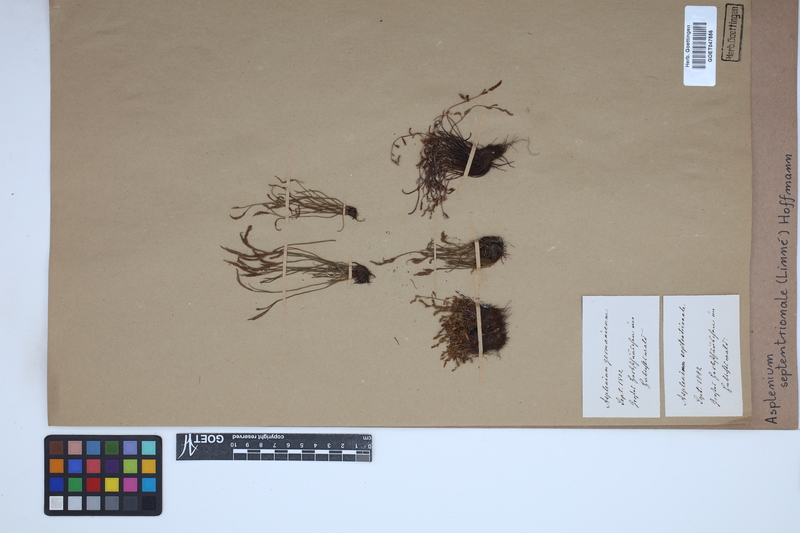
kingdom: Plantae
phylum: Tracheophyta
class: Polypodiopsida
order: Polypodiales
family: Aspleniaceae
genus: Asplenium
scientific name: Asplenium septentrionale
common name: Forked spleenwort
